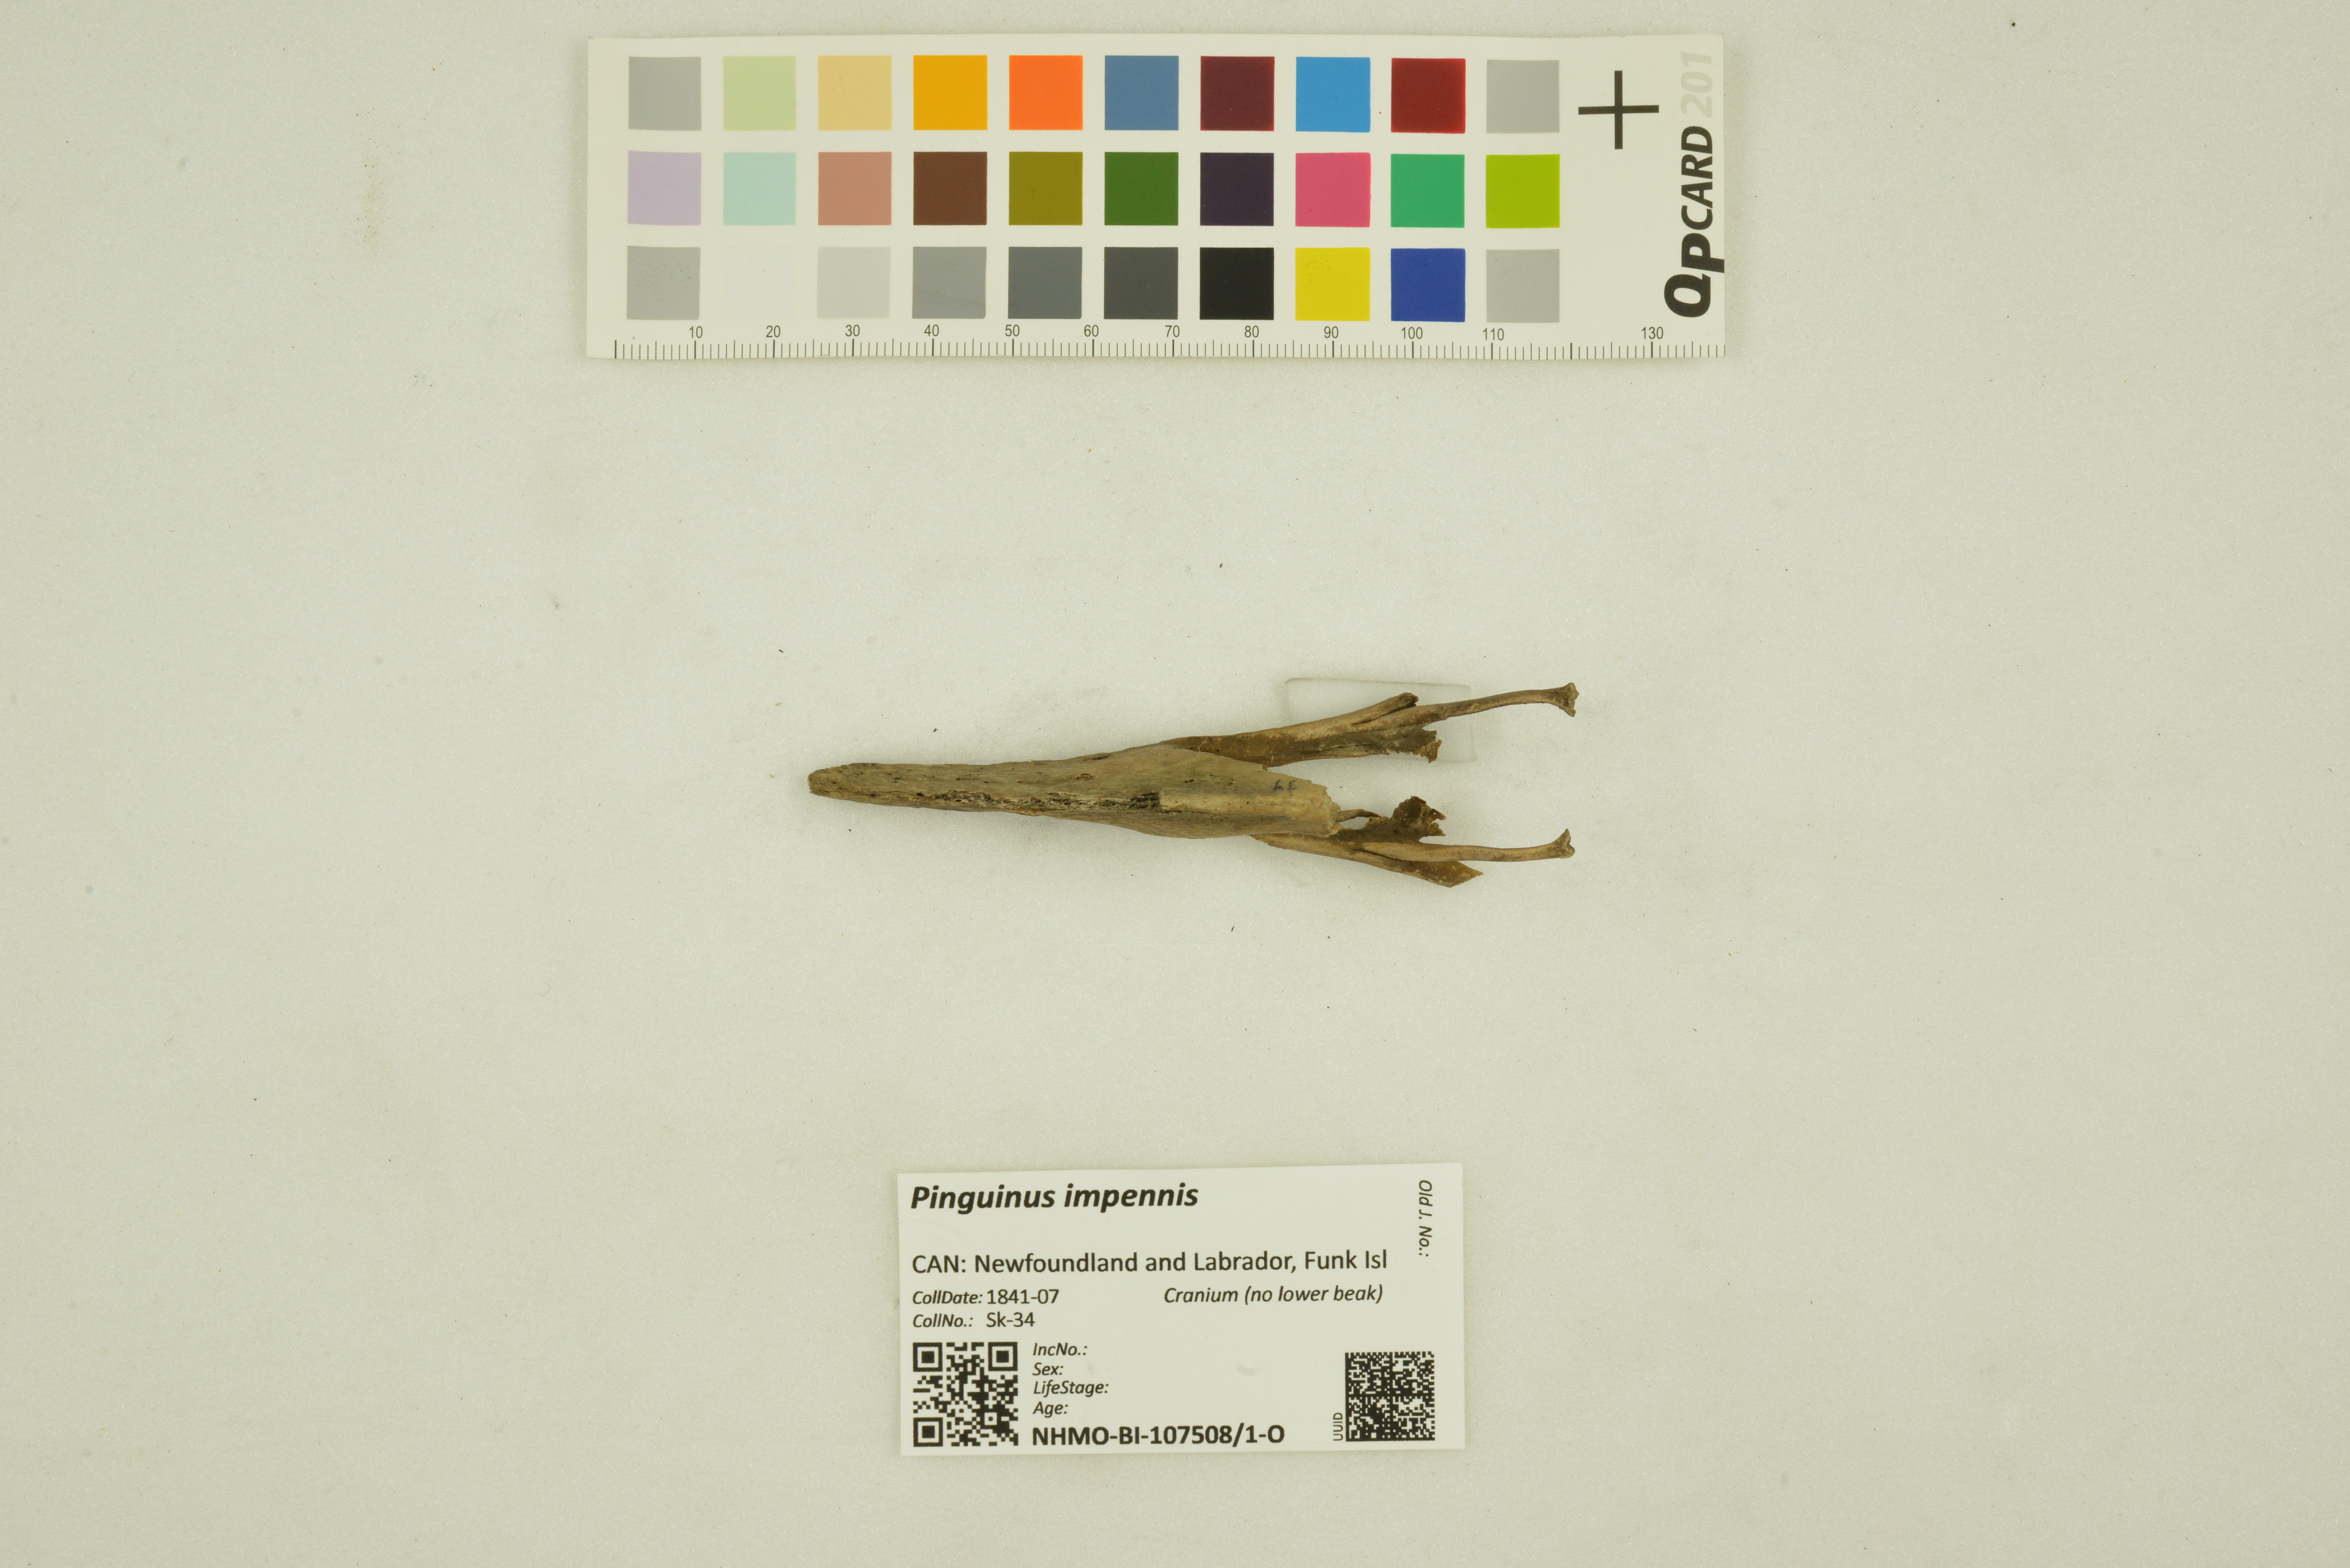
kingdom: Animalia
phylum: Chordata
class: Aves
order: Charadriiformes
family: Alcidae
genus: Pinguinus
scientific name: Pinguinus impennis
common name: Great auk
